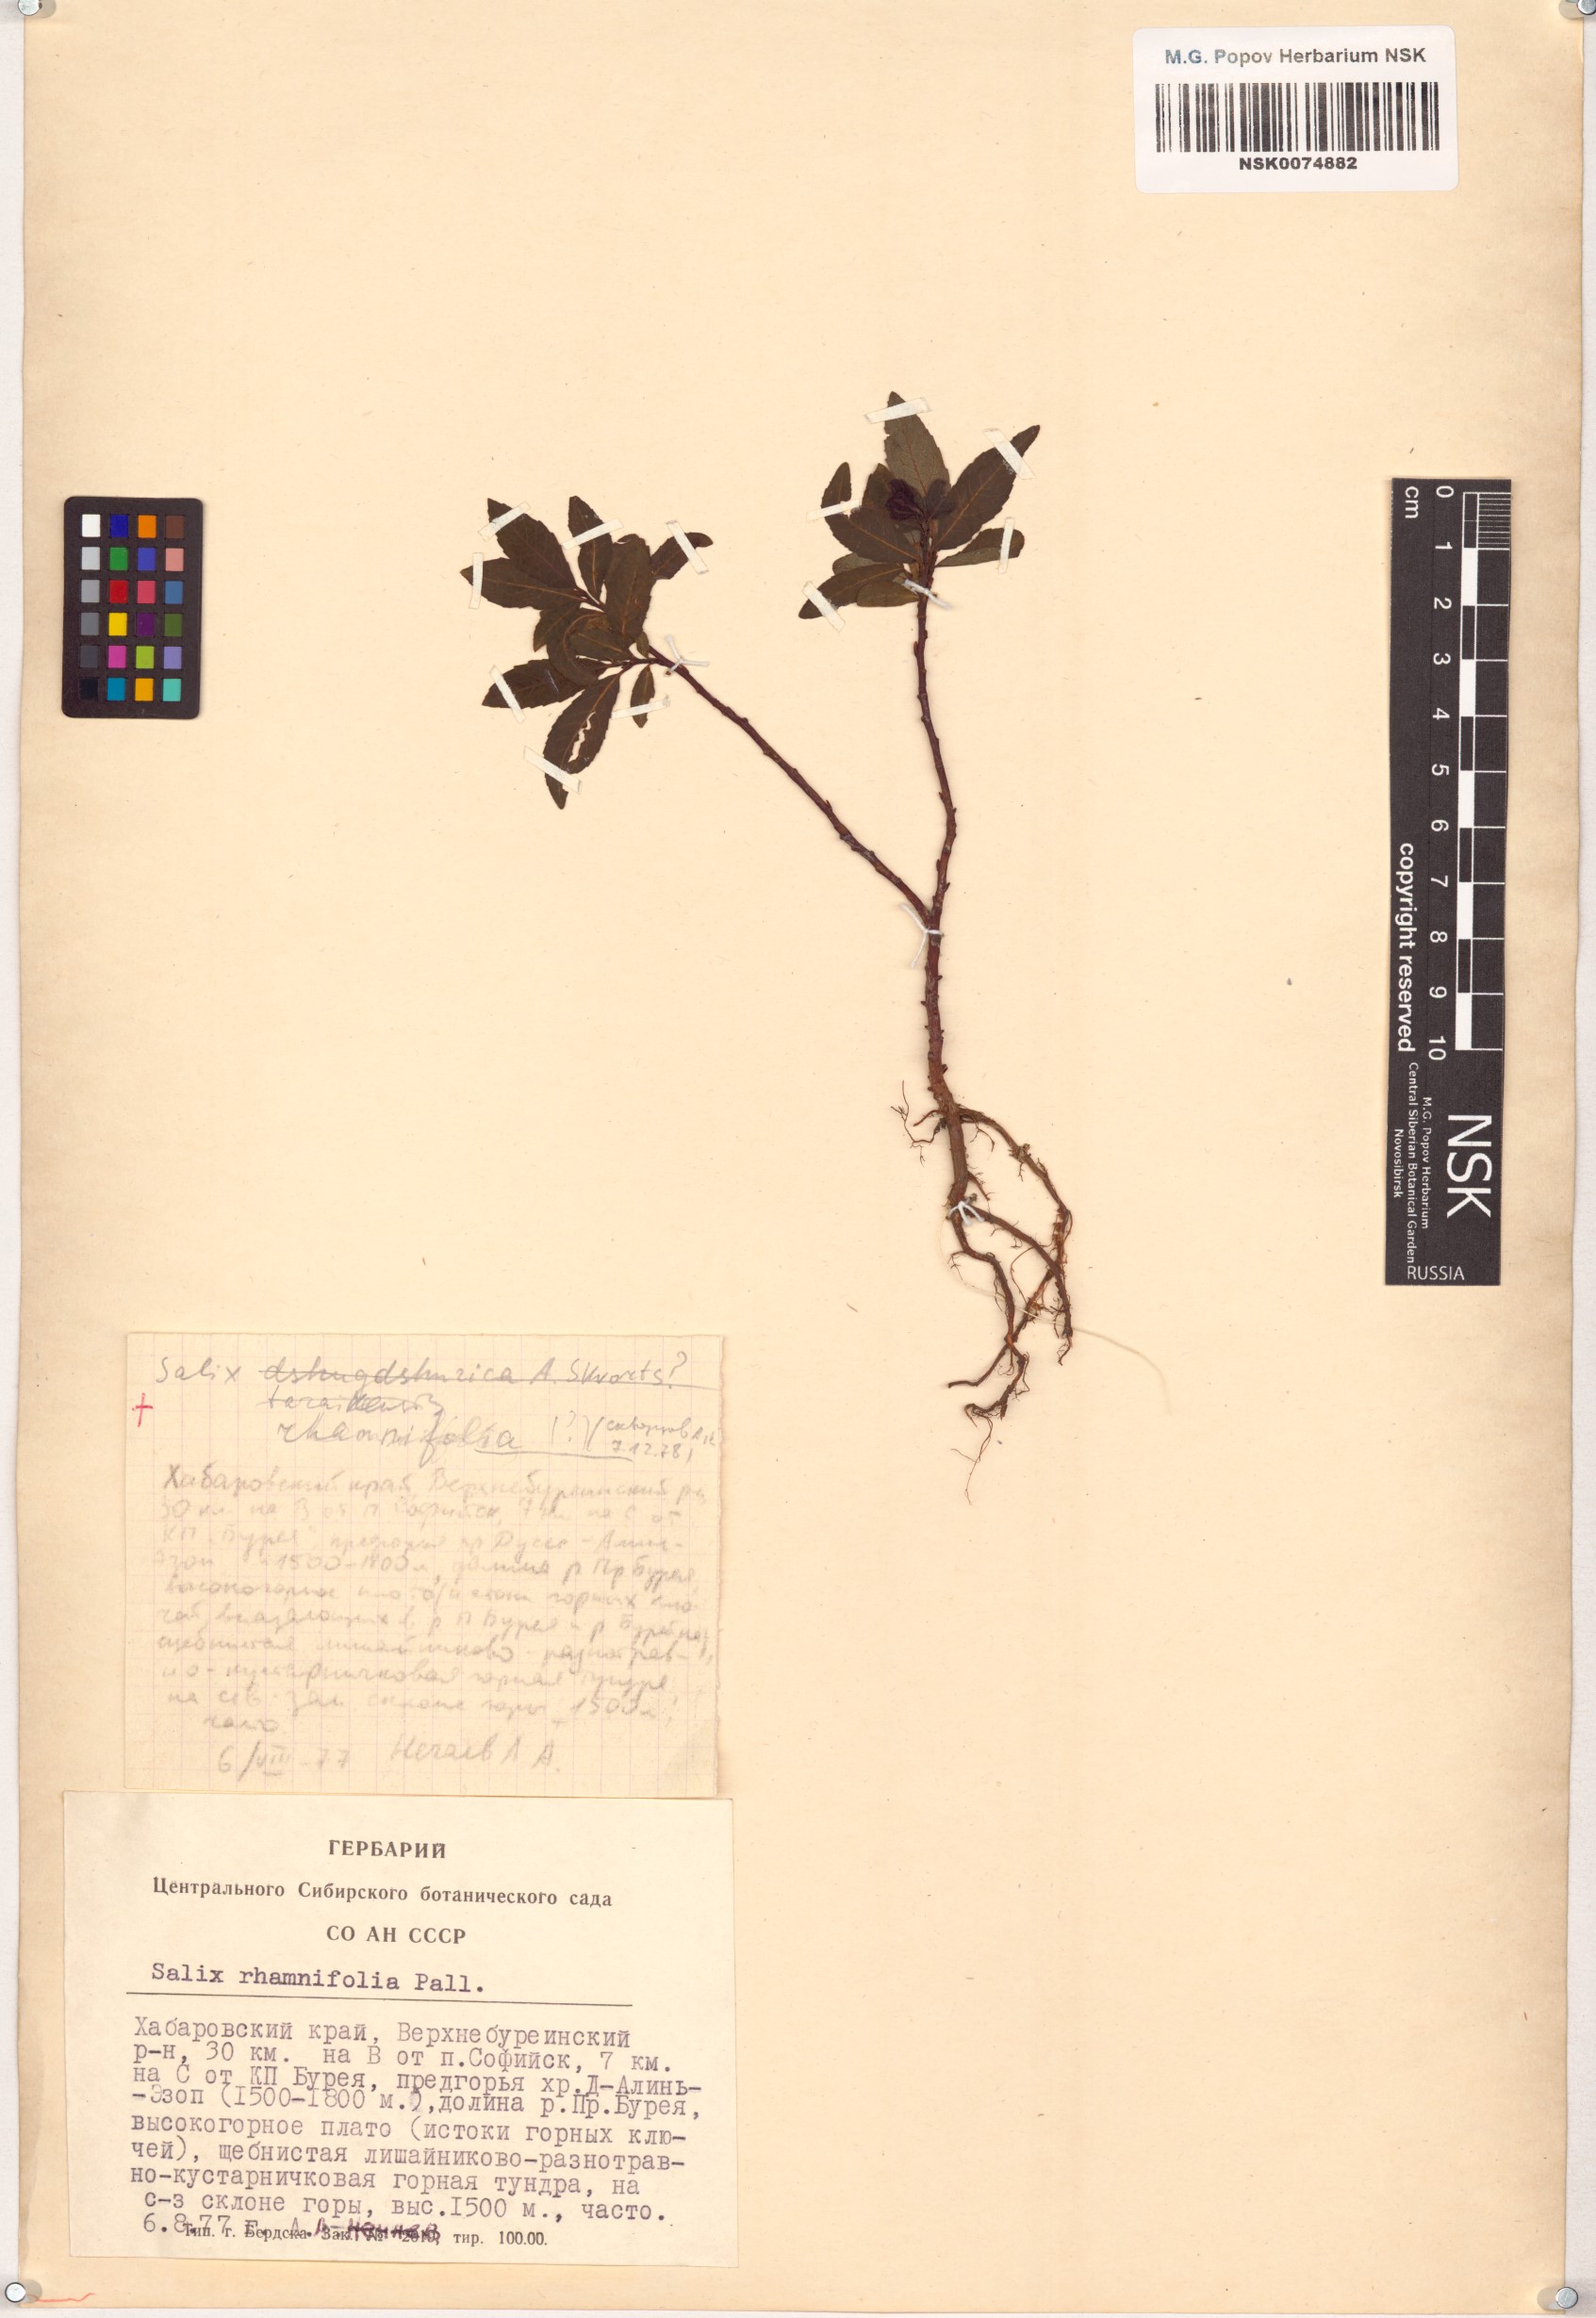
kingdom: Plantae
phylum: Tracheophyta
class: Magnoliopsida
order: Malpighiales
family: Salicaceae
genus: Salix
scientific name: Salix rhamnifolia
